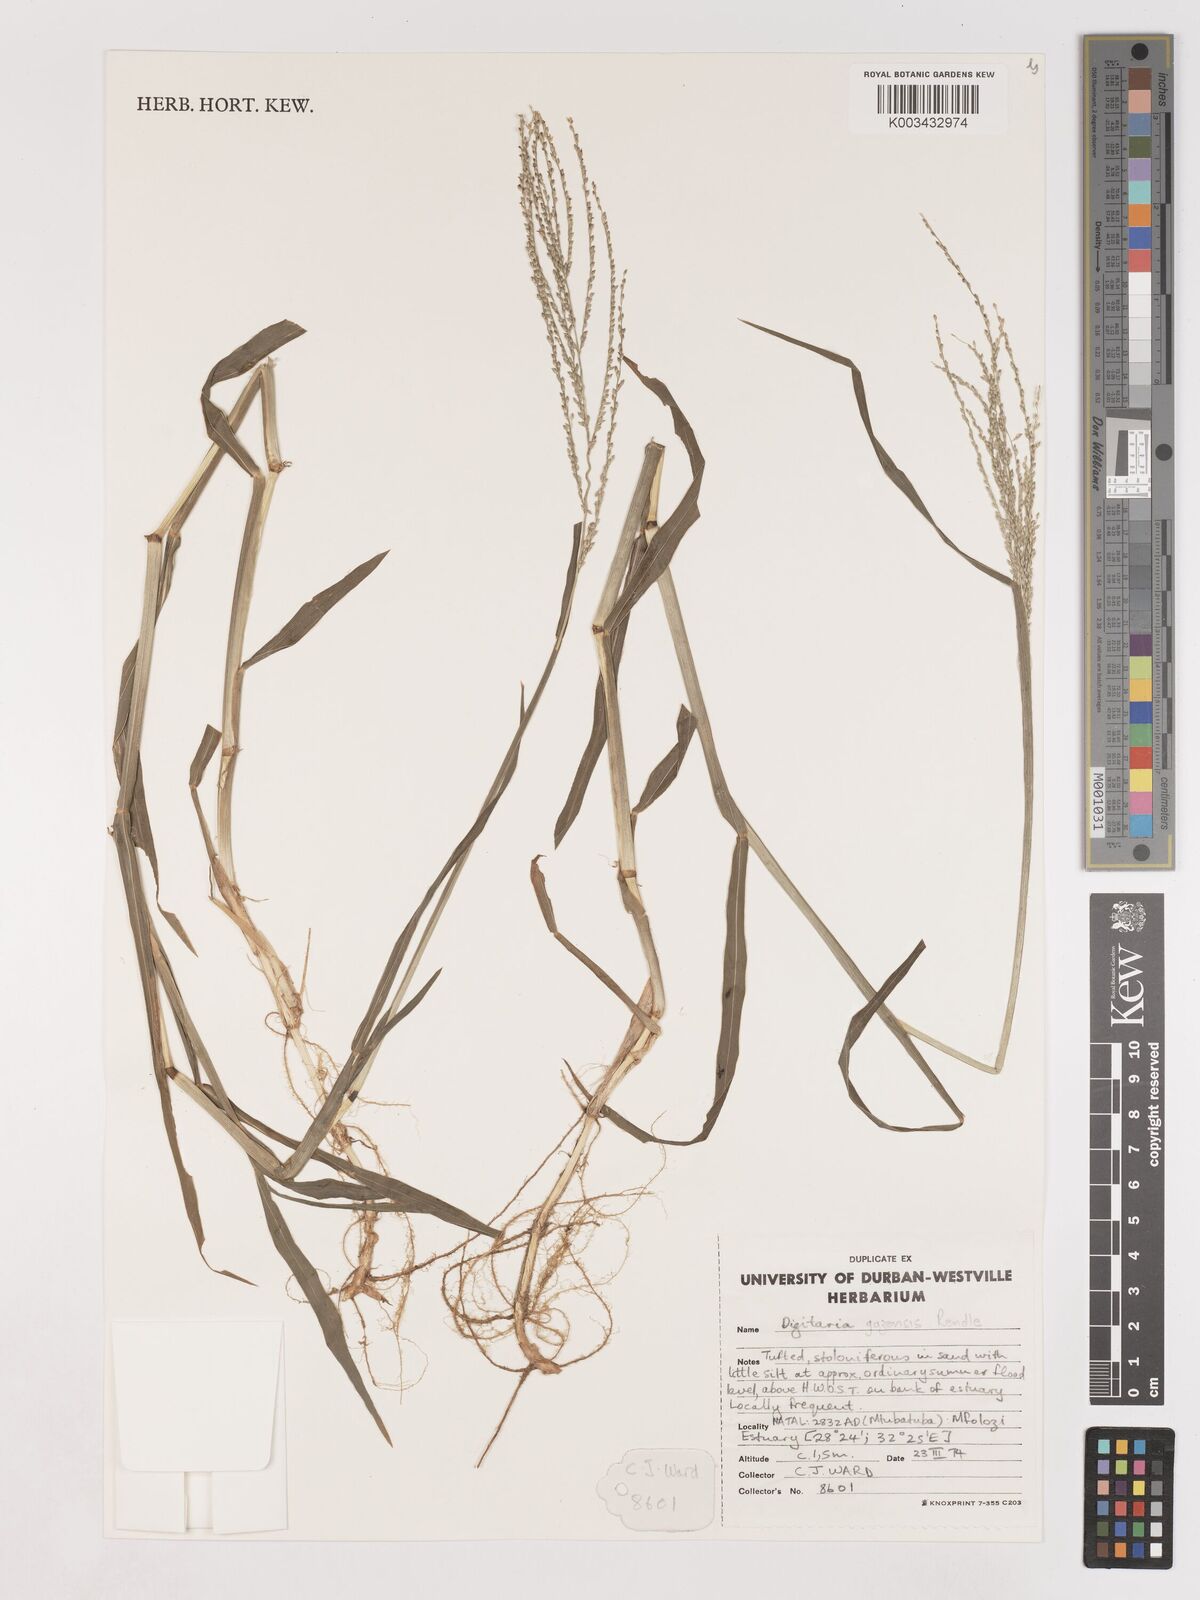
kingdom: Plantae
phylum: Tracheophyta
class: Liliopsida
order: Poales
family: Poaceae
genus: Digitaria
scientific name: Digitaria gazensis
